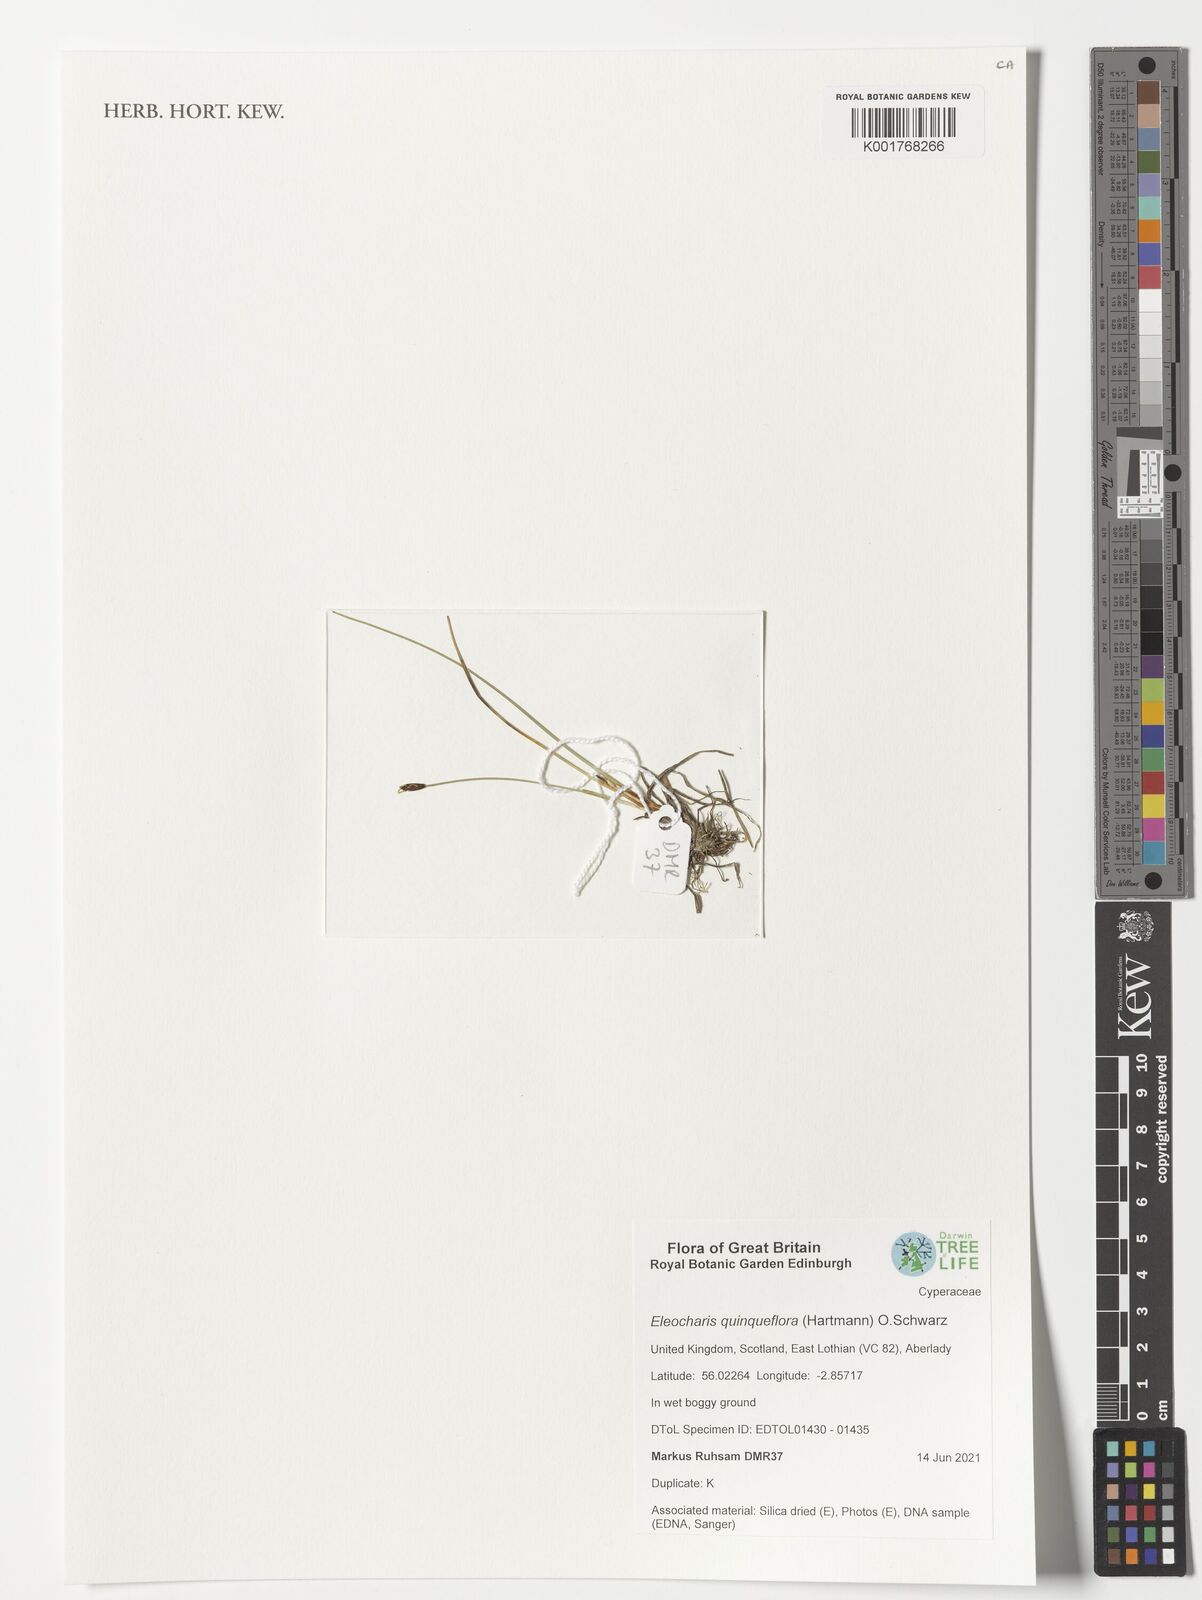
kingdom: Plantae
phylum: Tracheophyta
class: Liliopsida
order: Poales
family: Cyperaceae
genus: Eleocharis
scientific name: Eleocharis quinqueflora
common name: Few-flowered spike-rush
